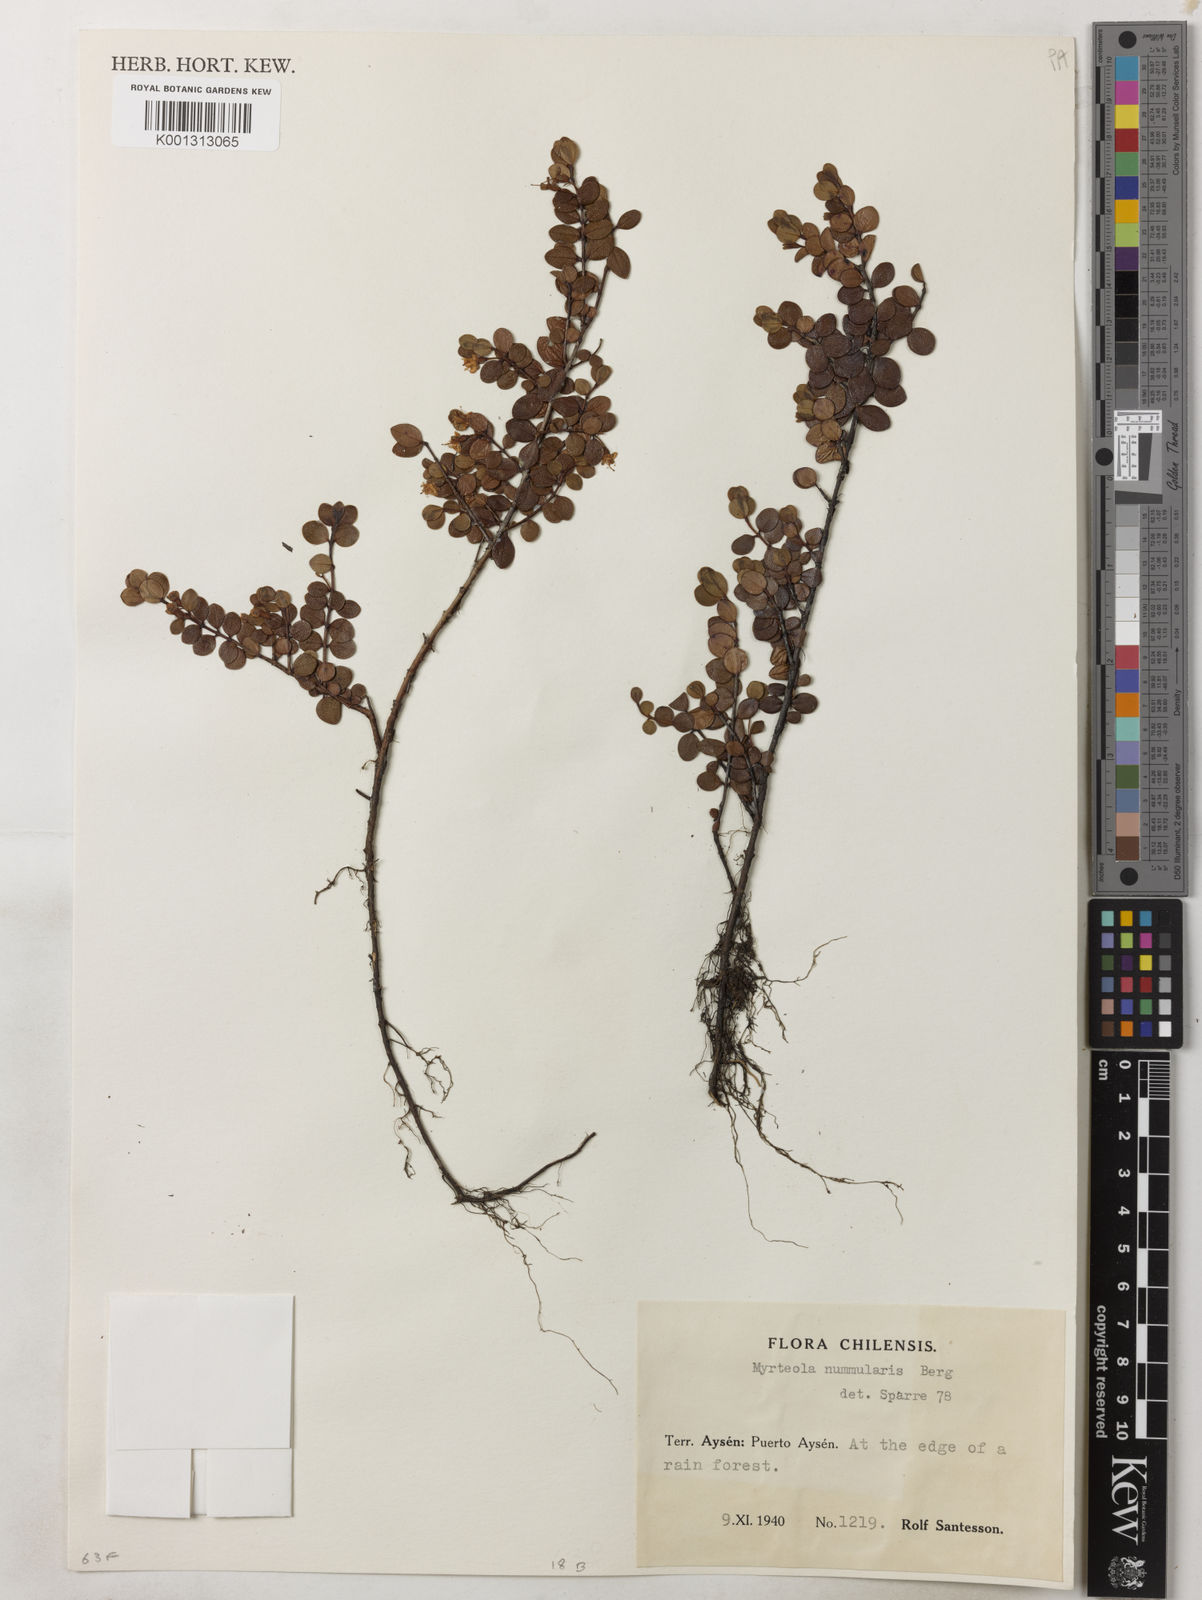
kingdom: Plantae
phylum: Tracheophyta
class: Magnoliopsida
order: Myrtales
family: Myrtaceae
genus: Myrteola
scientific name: Myrteola nummularia
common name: Cranberry-myrtle
